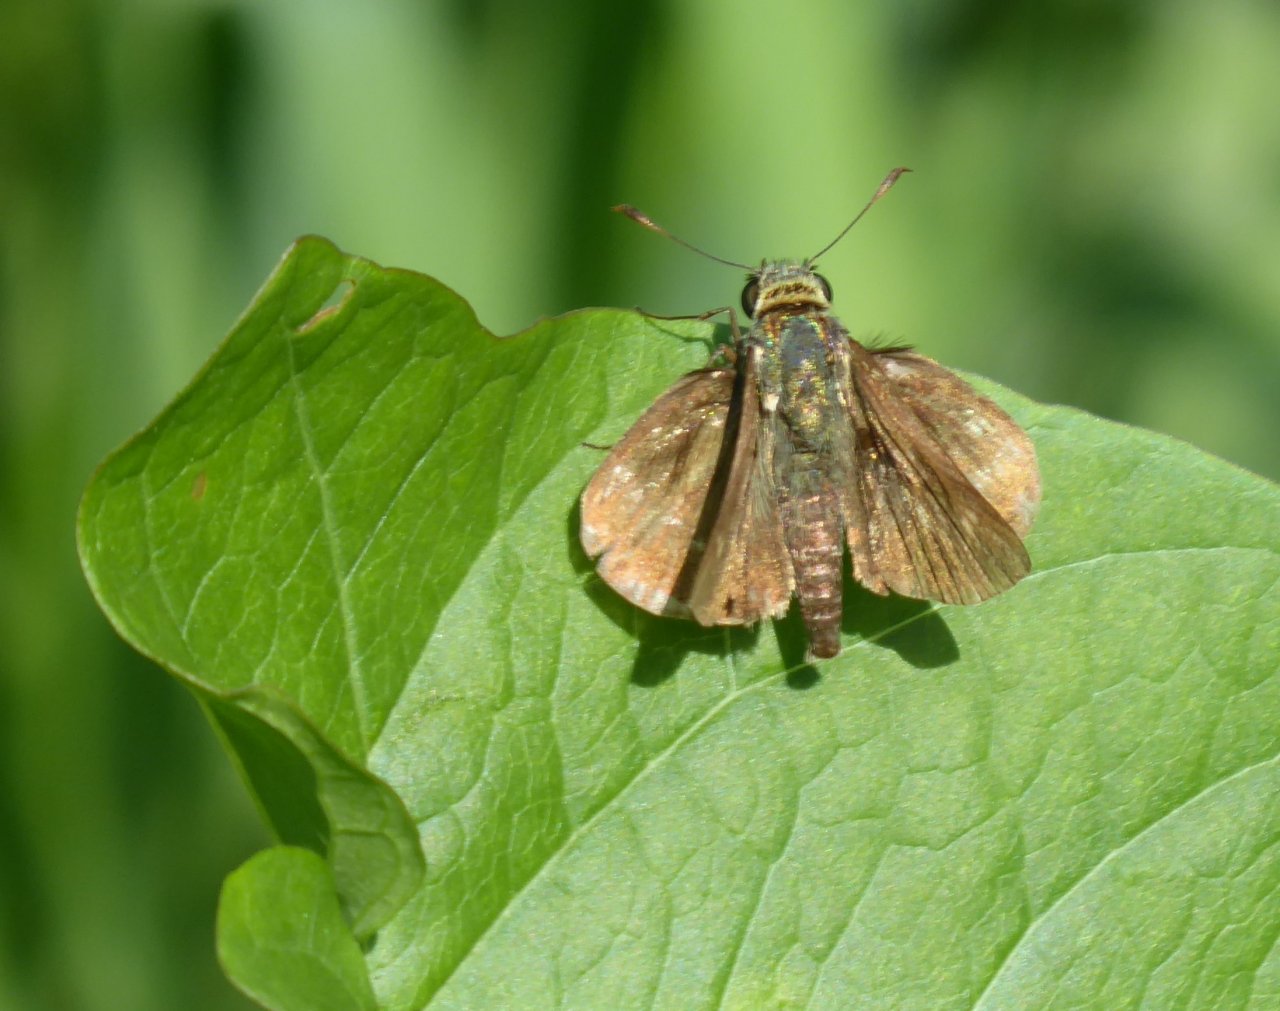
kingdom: Animalia
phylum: Arthropoda
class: Insecta
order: Lepidoptera
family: Hesperiidae
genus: Euphyes
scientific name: Euphyes vestris
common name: Dun Skipper
